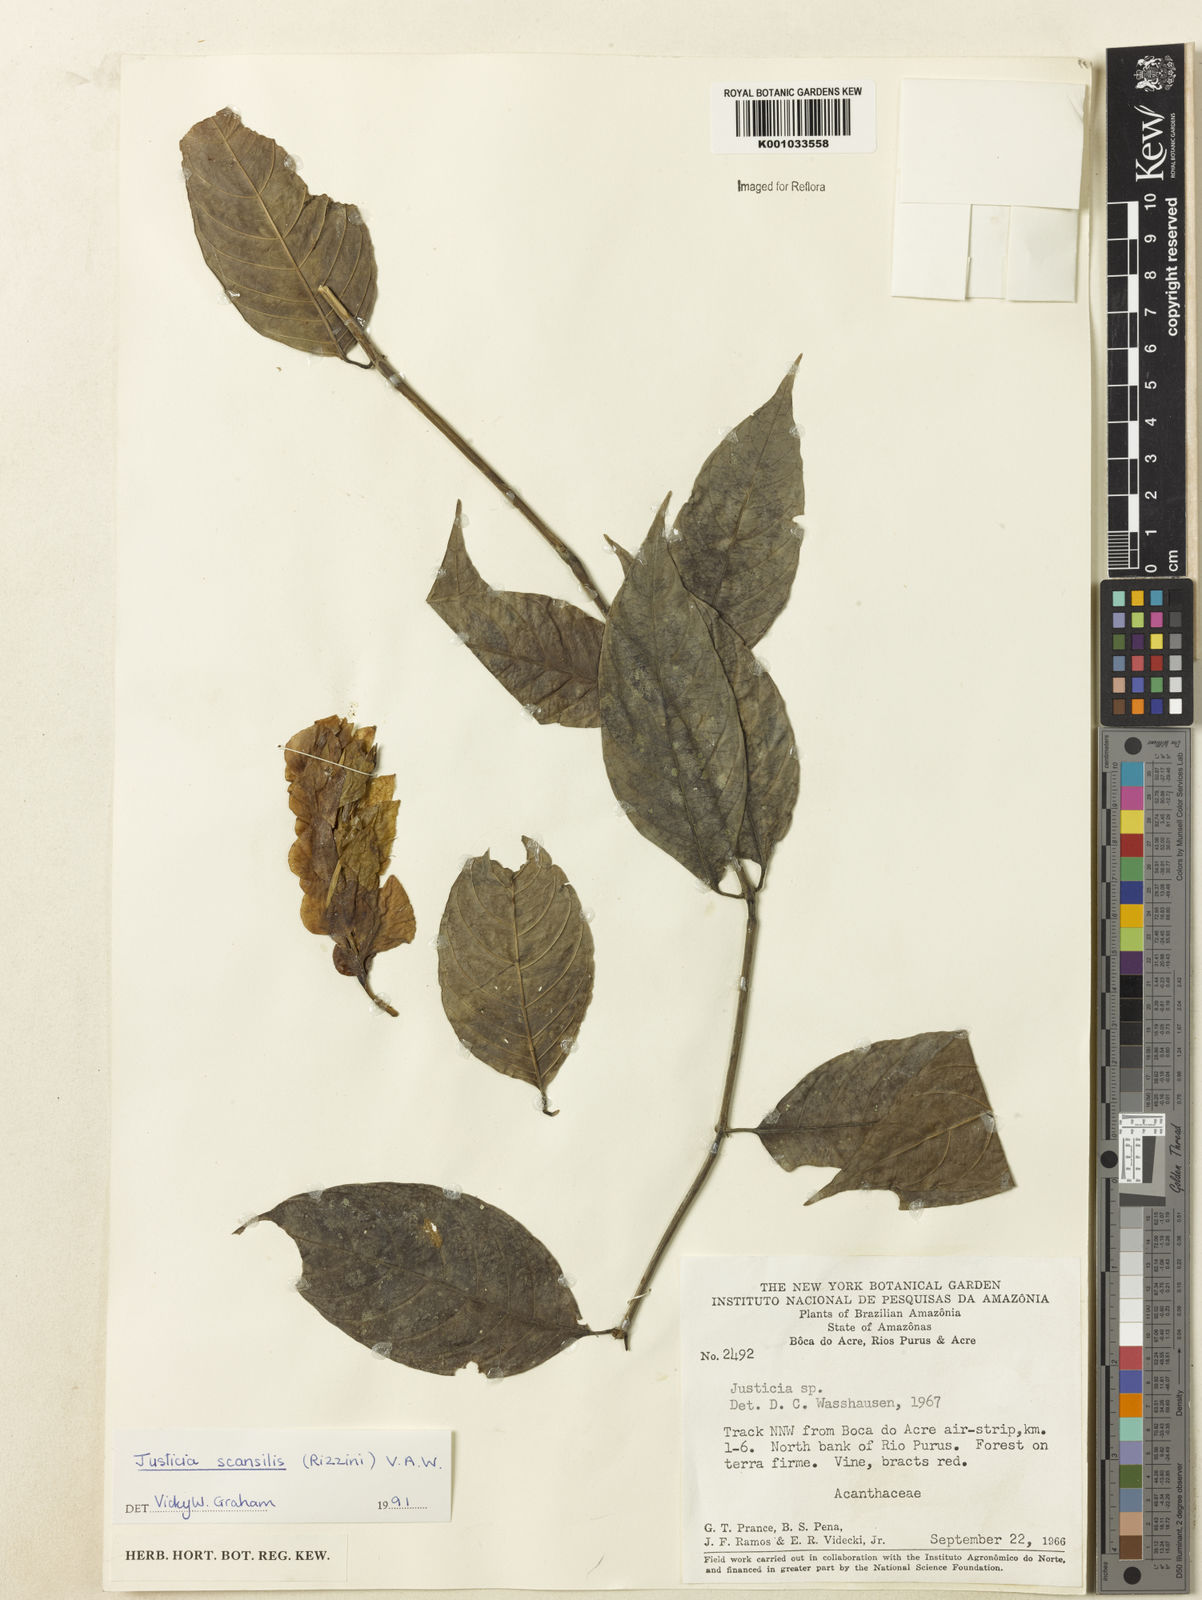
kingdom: Plantae
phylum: Tracheophyta
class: Magnoliopsida
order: Lamiales
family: Acanthaceae
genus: Justicia
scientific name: Justicia scansilis
